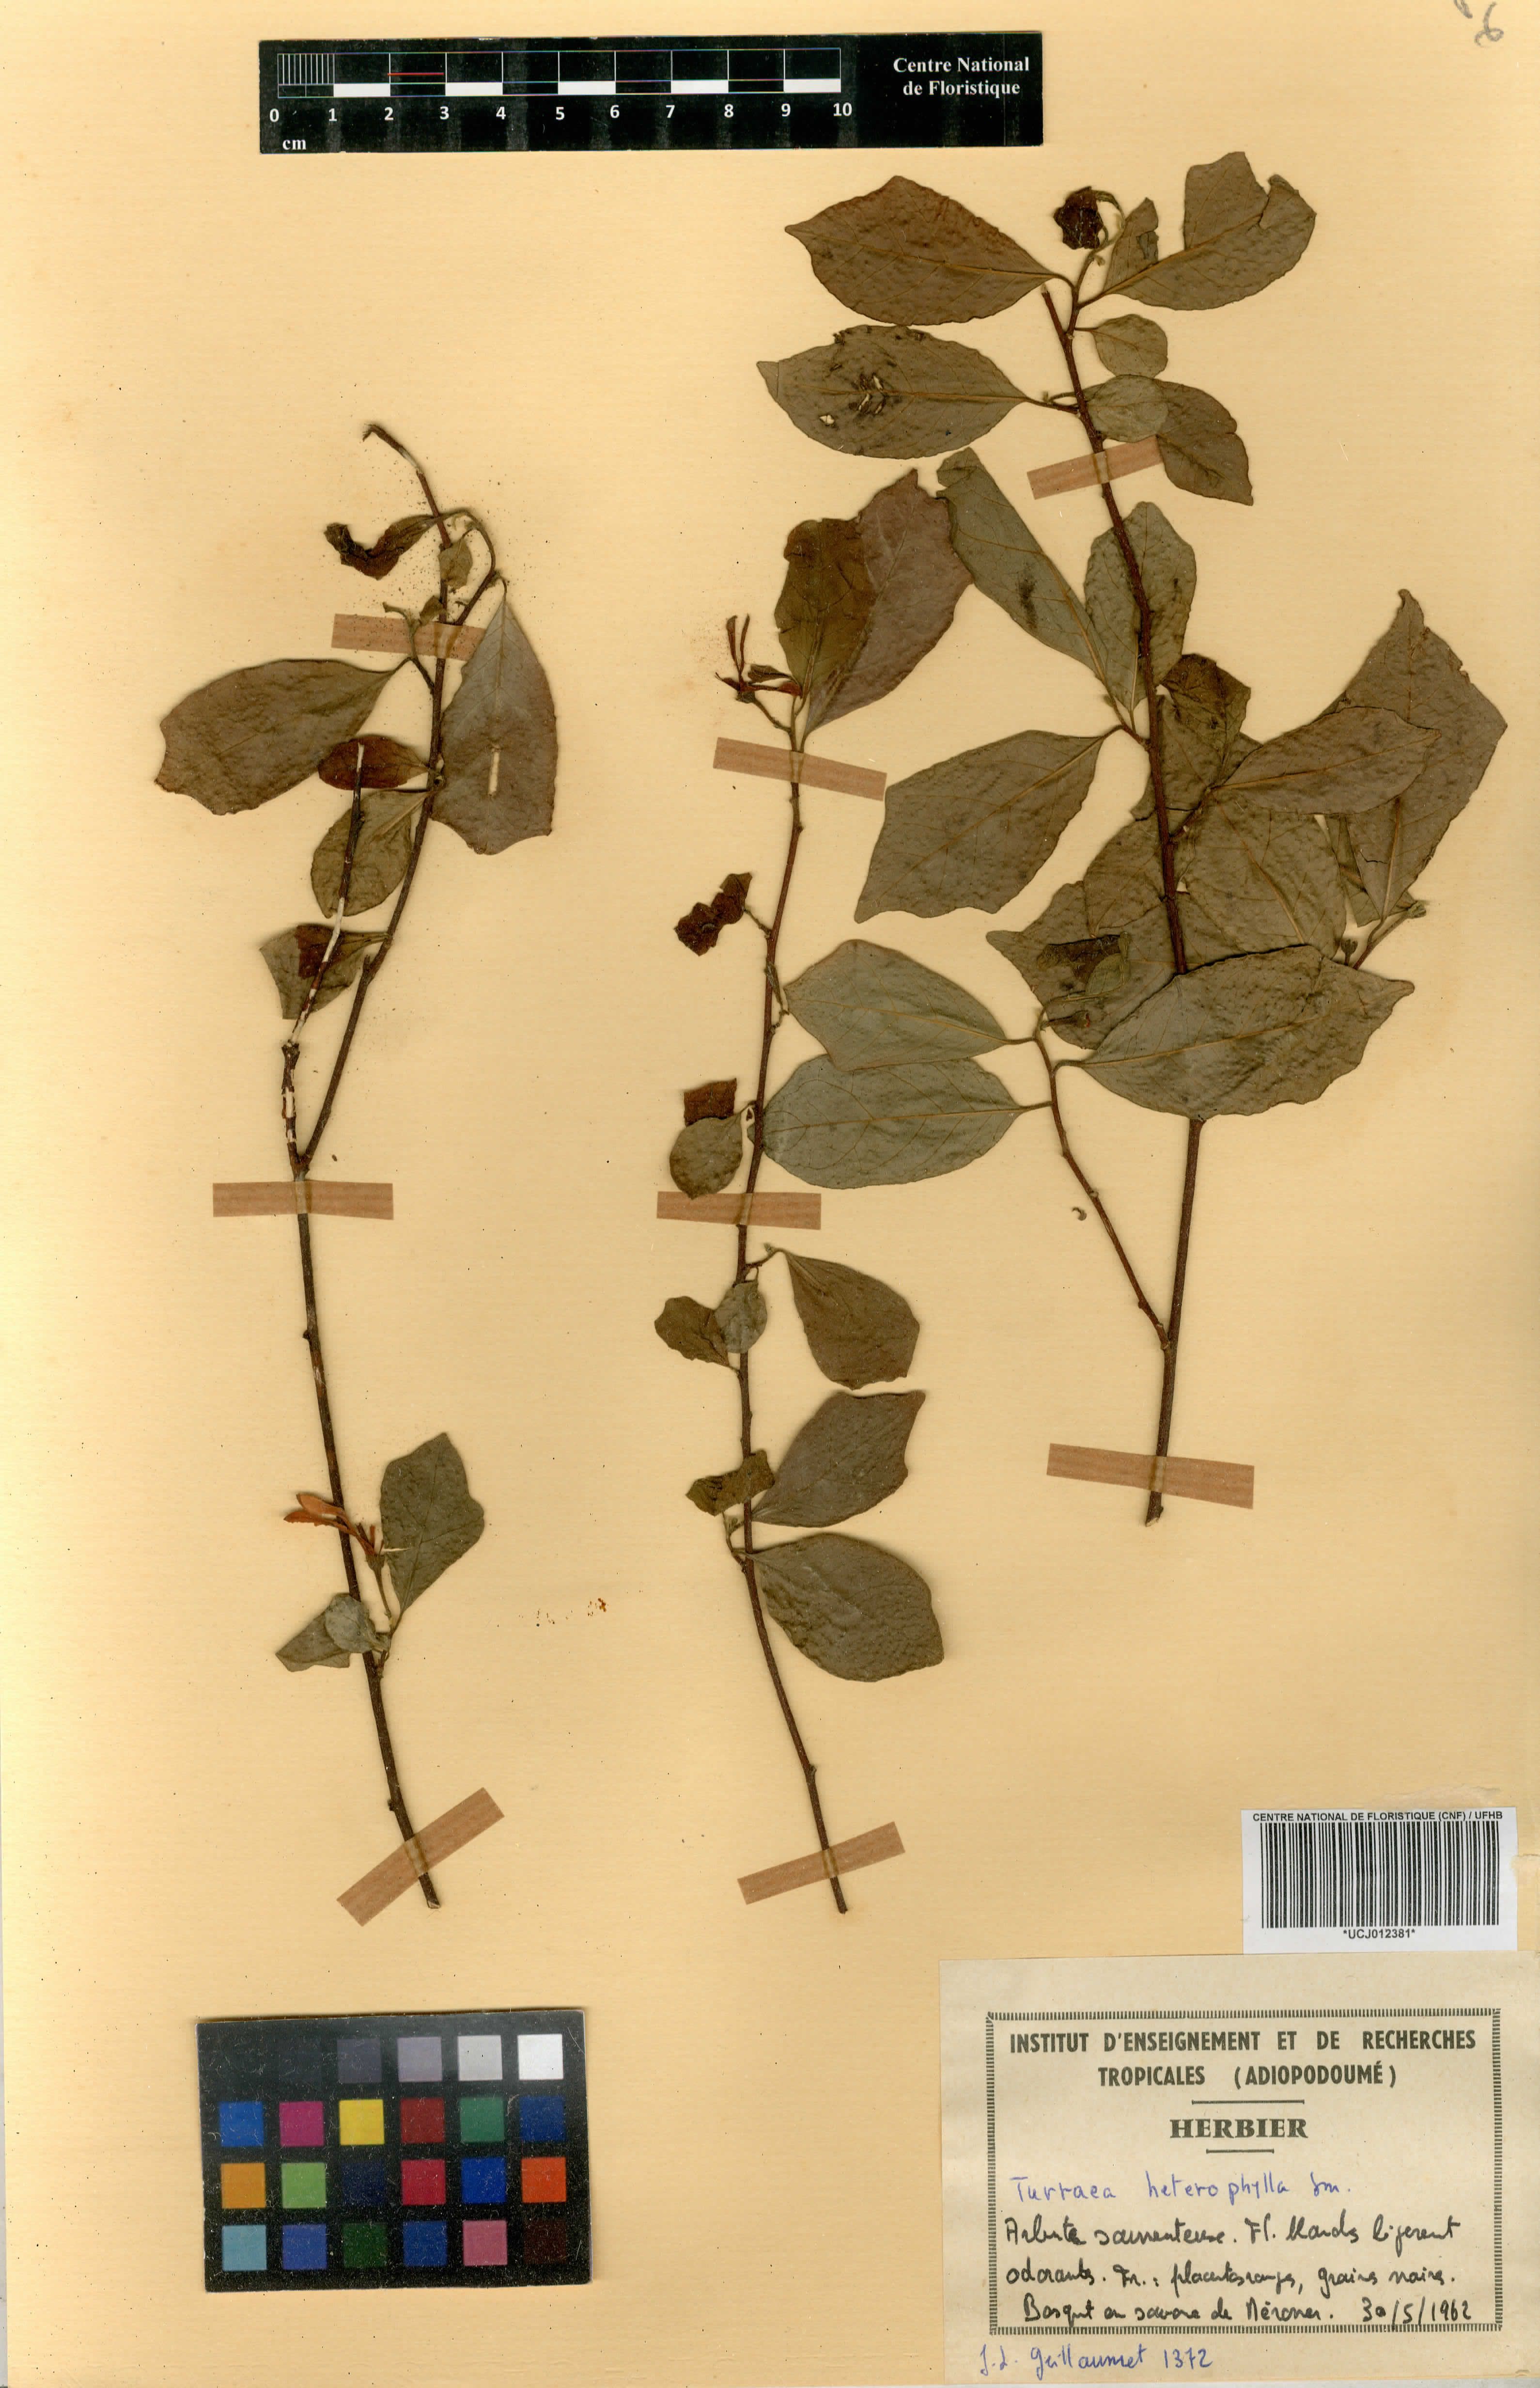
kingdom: Plantae
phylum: Tracheophyta
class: Magnoliopsida
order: Sapindales
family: Meliaceae
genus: Turraea
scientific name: Turraea heterophylla
